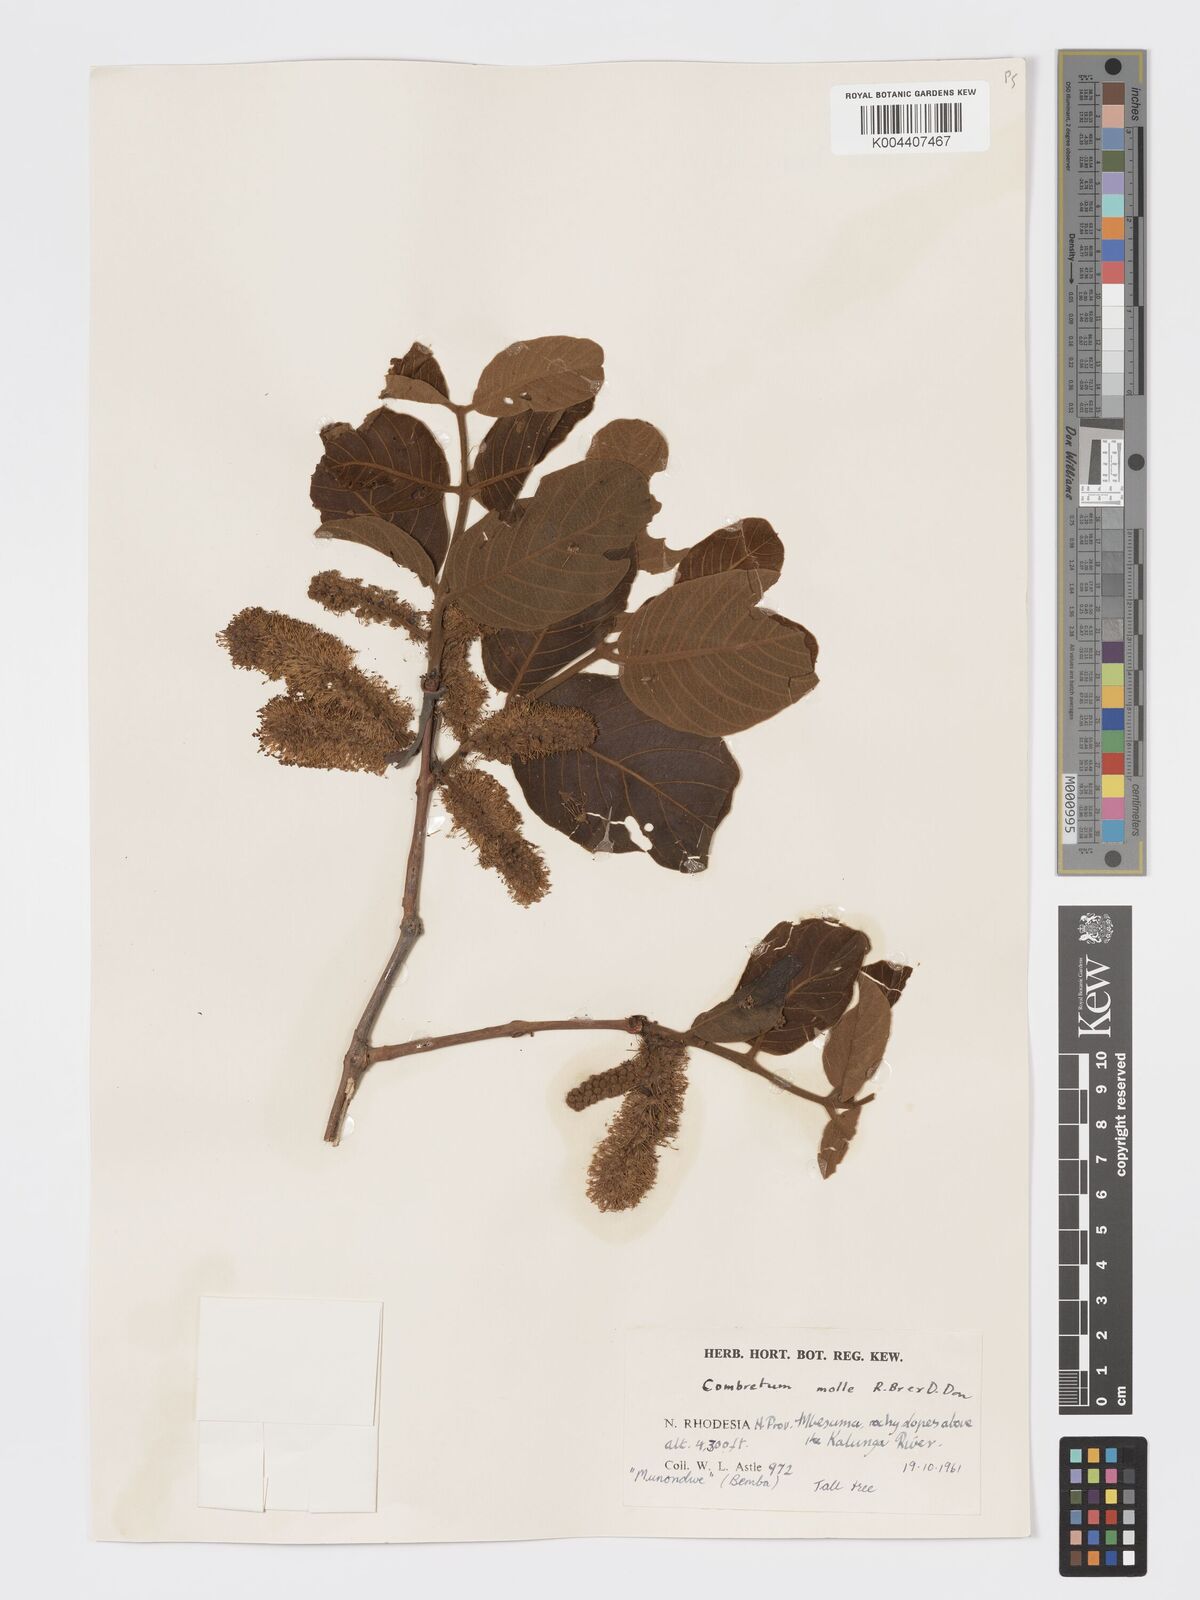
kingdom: Plantae
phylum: Tracheophyta
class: Magnoliopsida
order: Myrtales
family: Combretaceae
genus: Combretum
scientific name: Combretum psidioides
